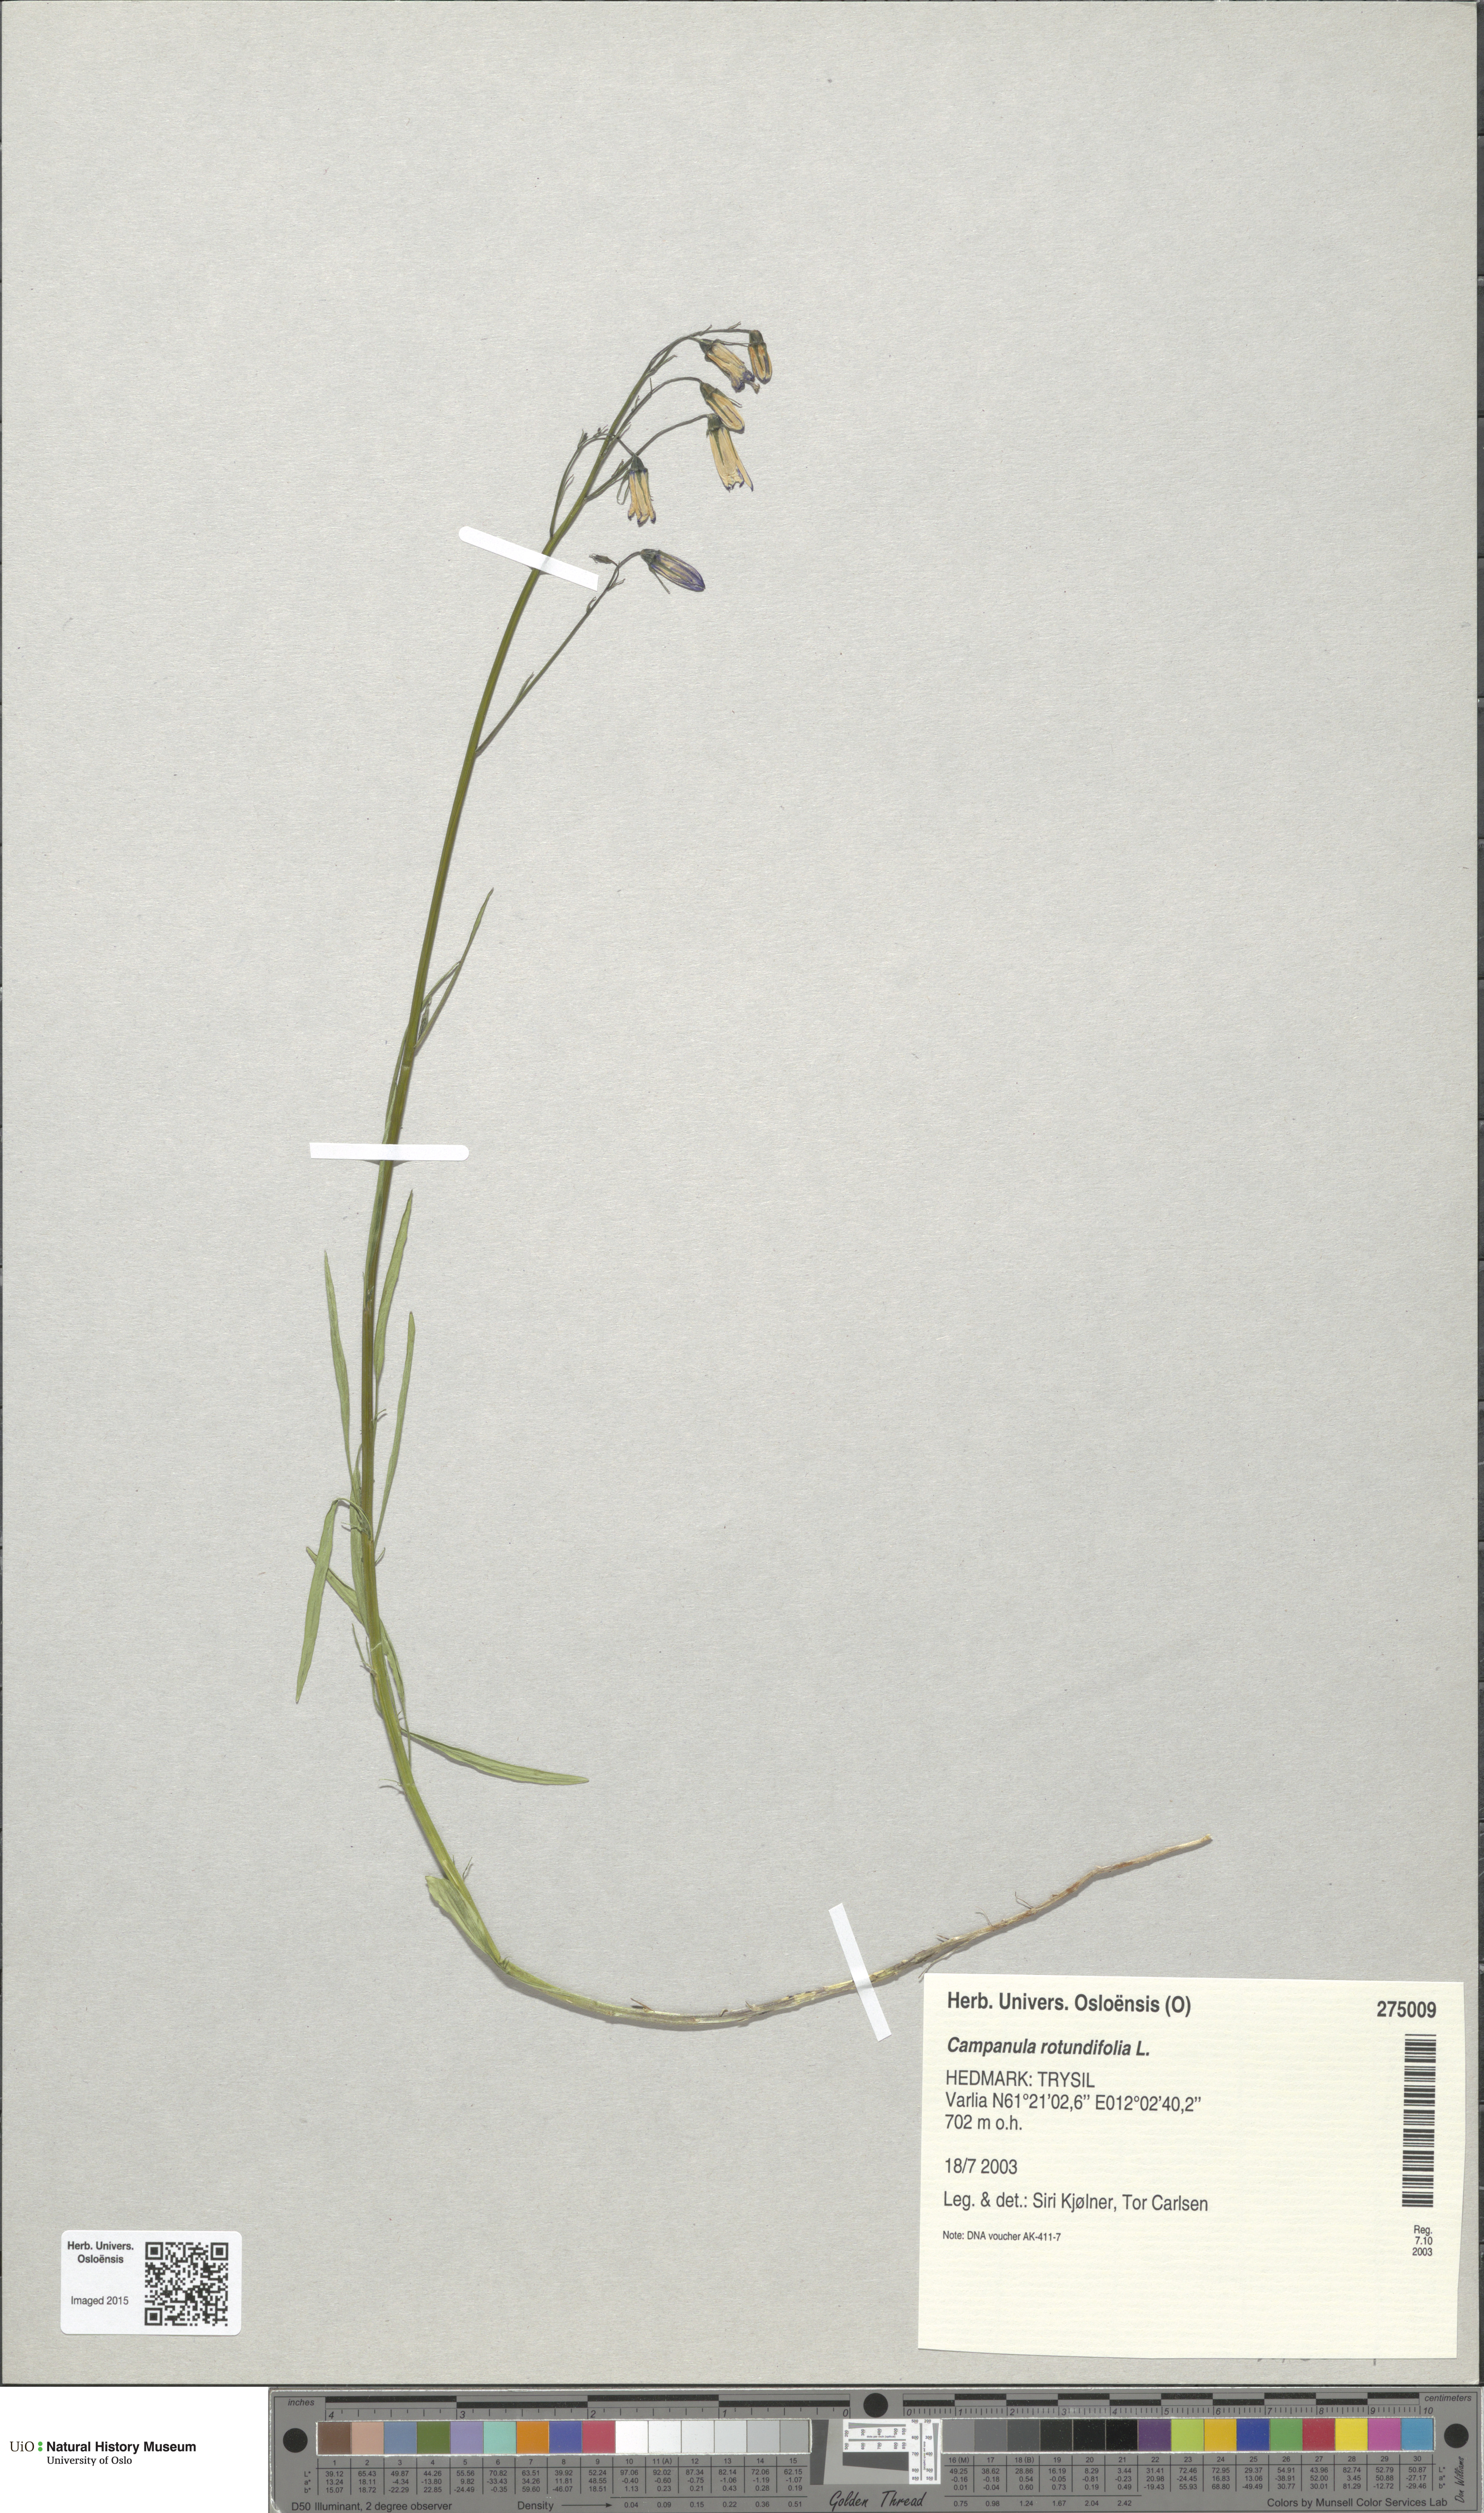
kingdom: Plantae
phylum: Tracheophyta
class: Magnoliopsida
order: Asterales
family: Campanulaceae
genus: Campanula
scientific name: Campanula rotundifolia
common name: Harebell
